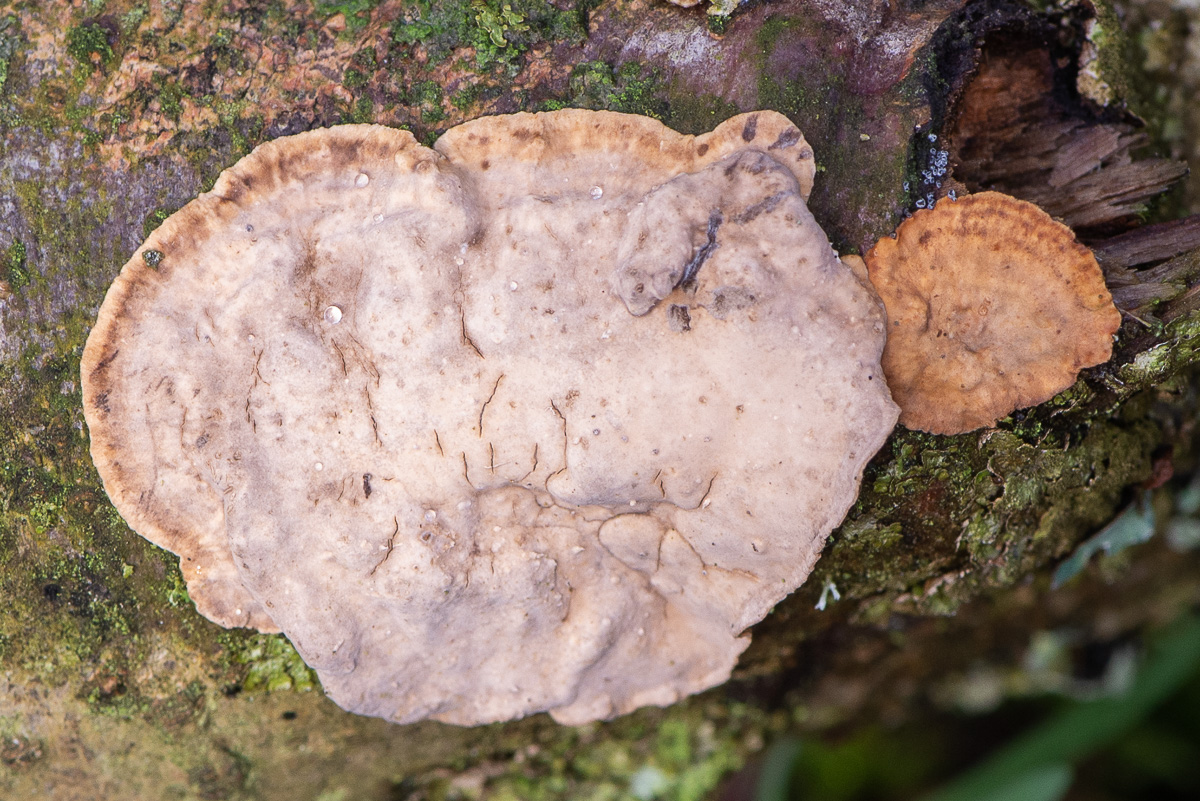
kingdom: Fungi
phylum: Basidiomycota
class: Agaricomycetes
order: Russulales
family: Stereaceae
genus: Stereum
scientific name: Stereum rugosum
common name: rynket lædersvamp
